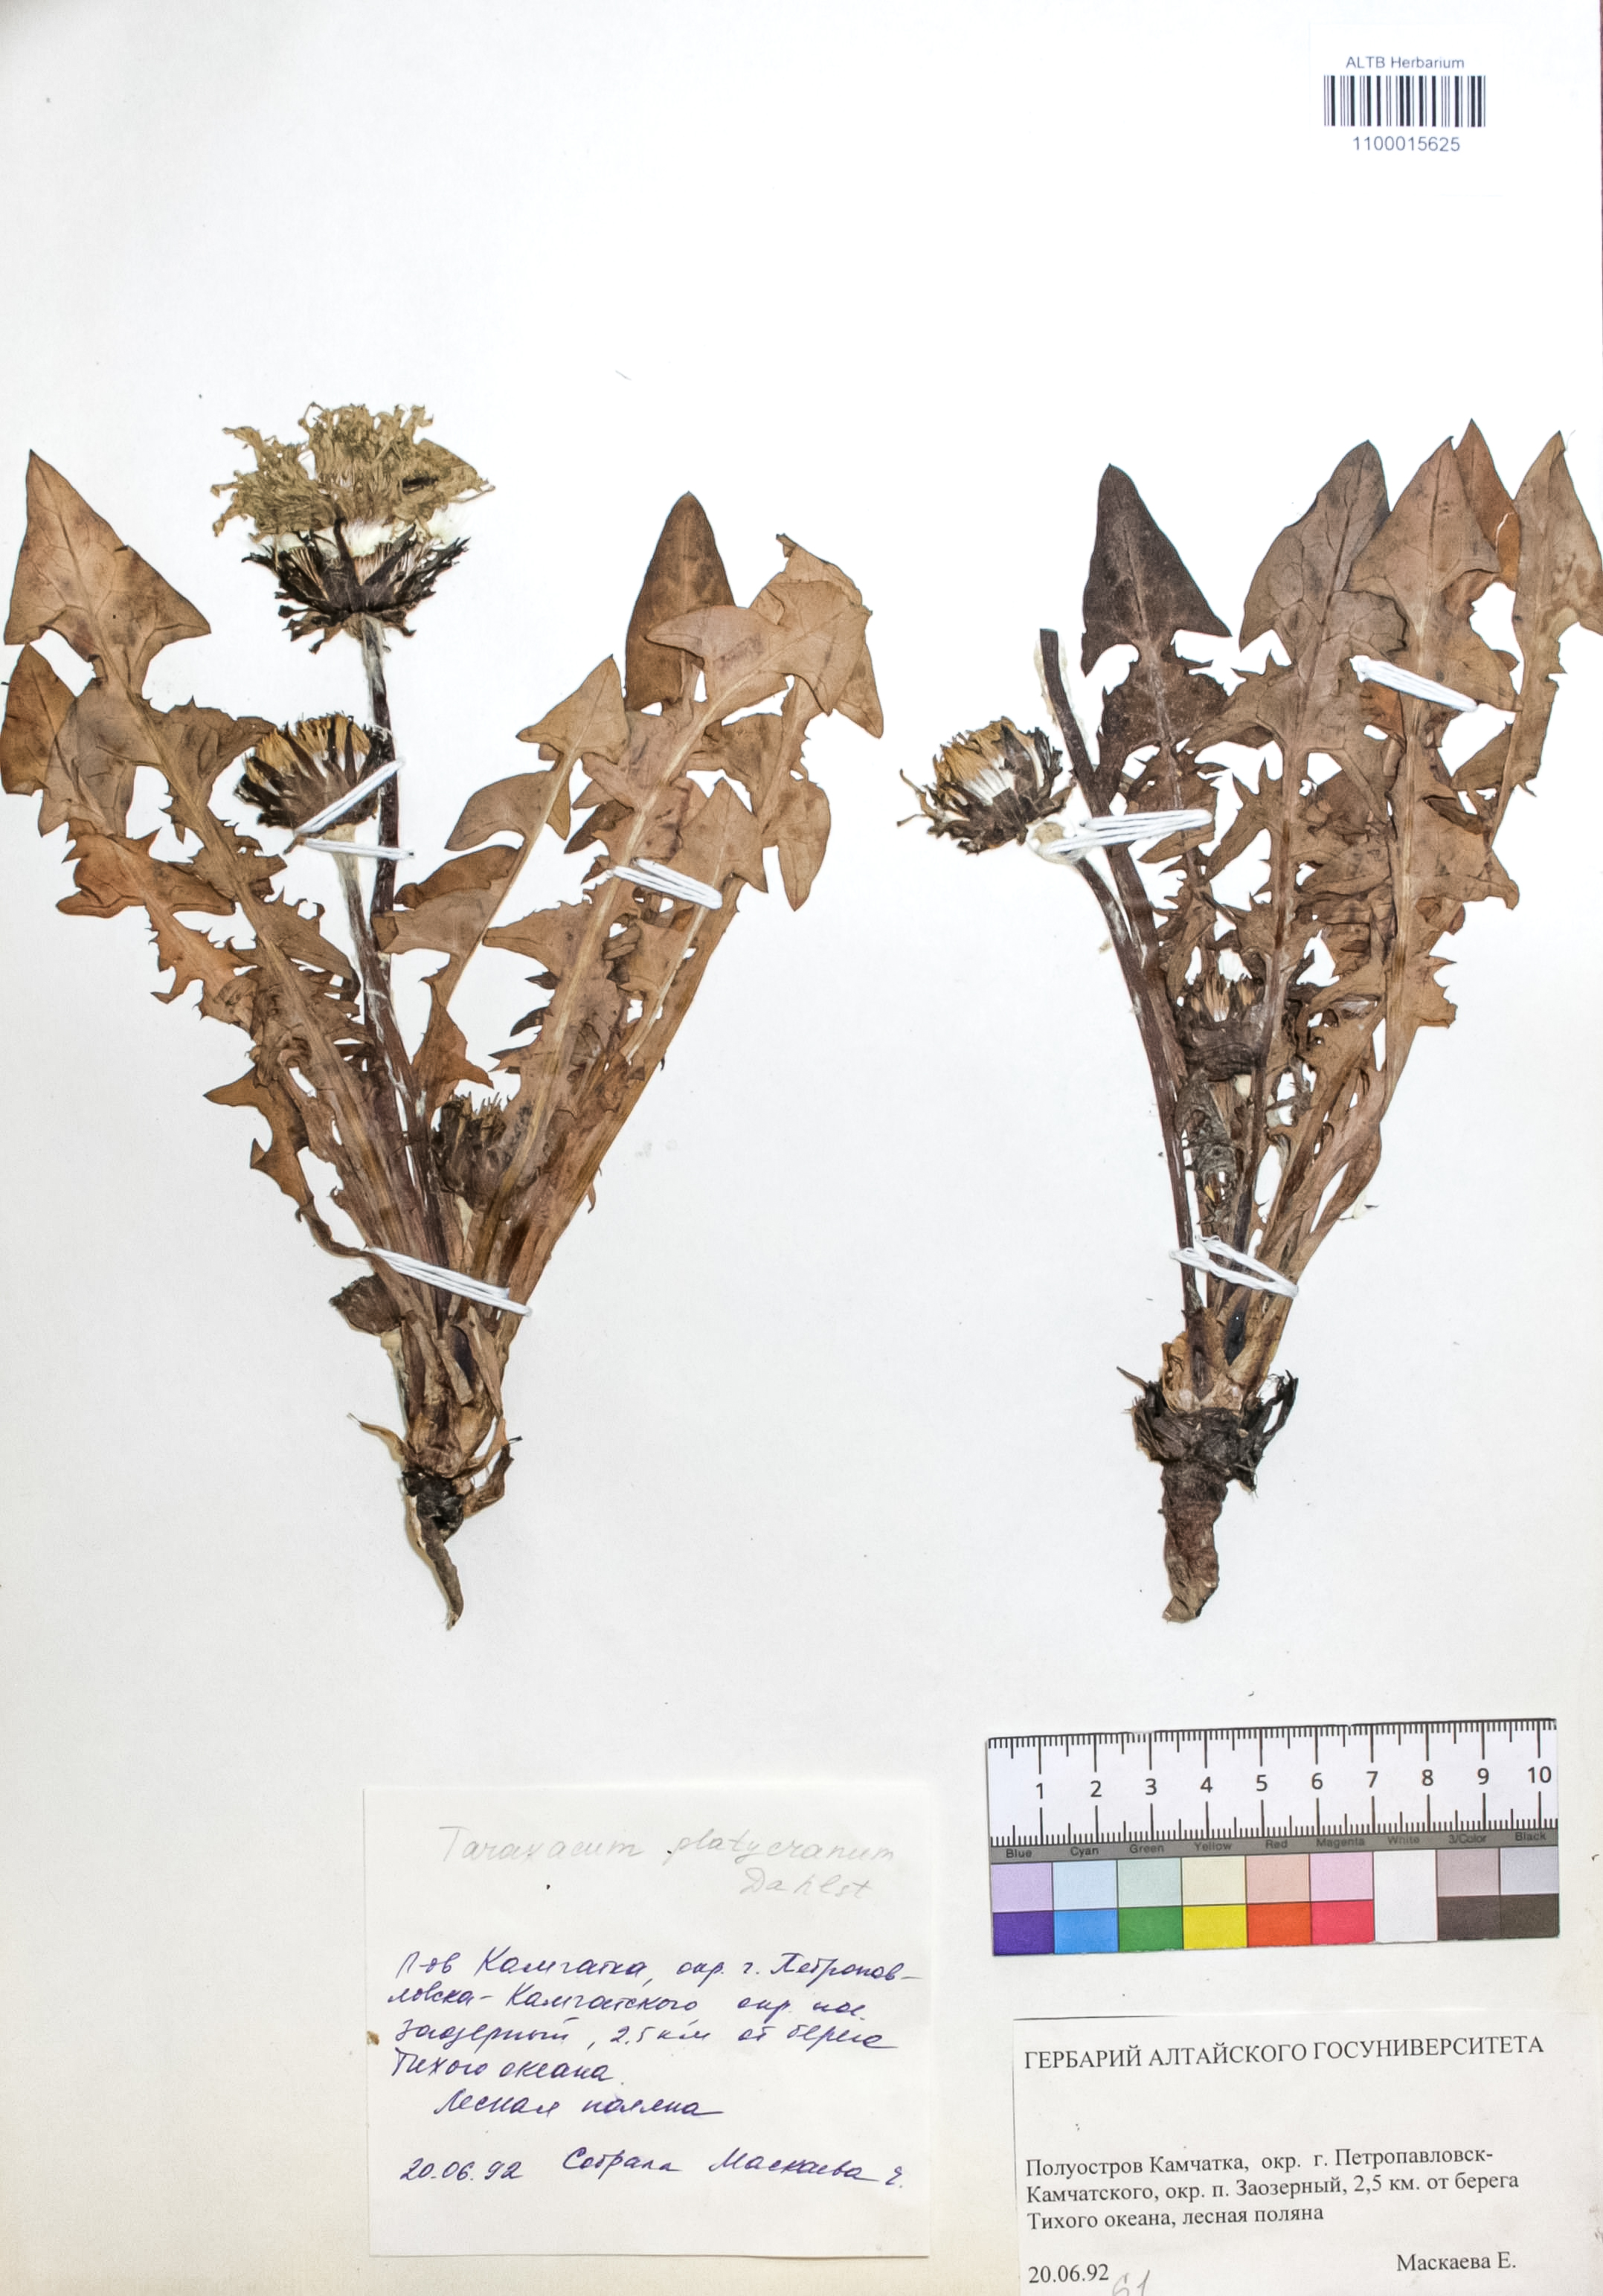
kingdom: Plantae
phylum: Tracheophyta
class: Magnoliopsida
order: Asterales
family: Asteraceae
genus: Taraxacum
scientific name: Taraxacum platycranum
